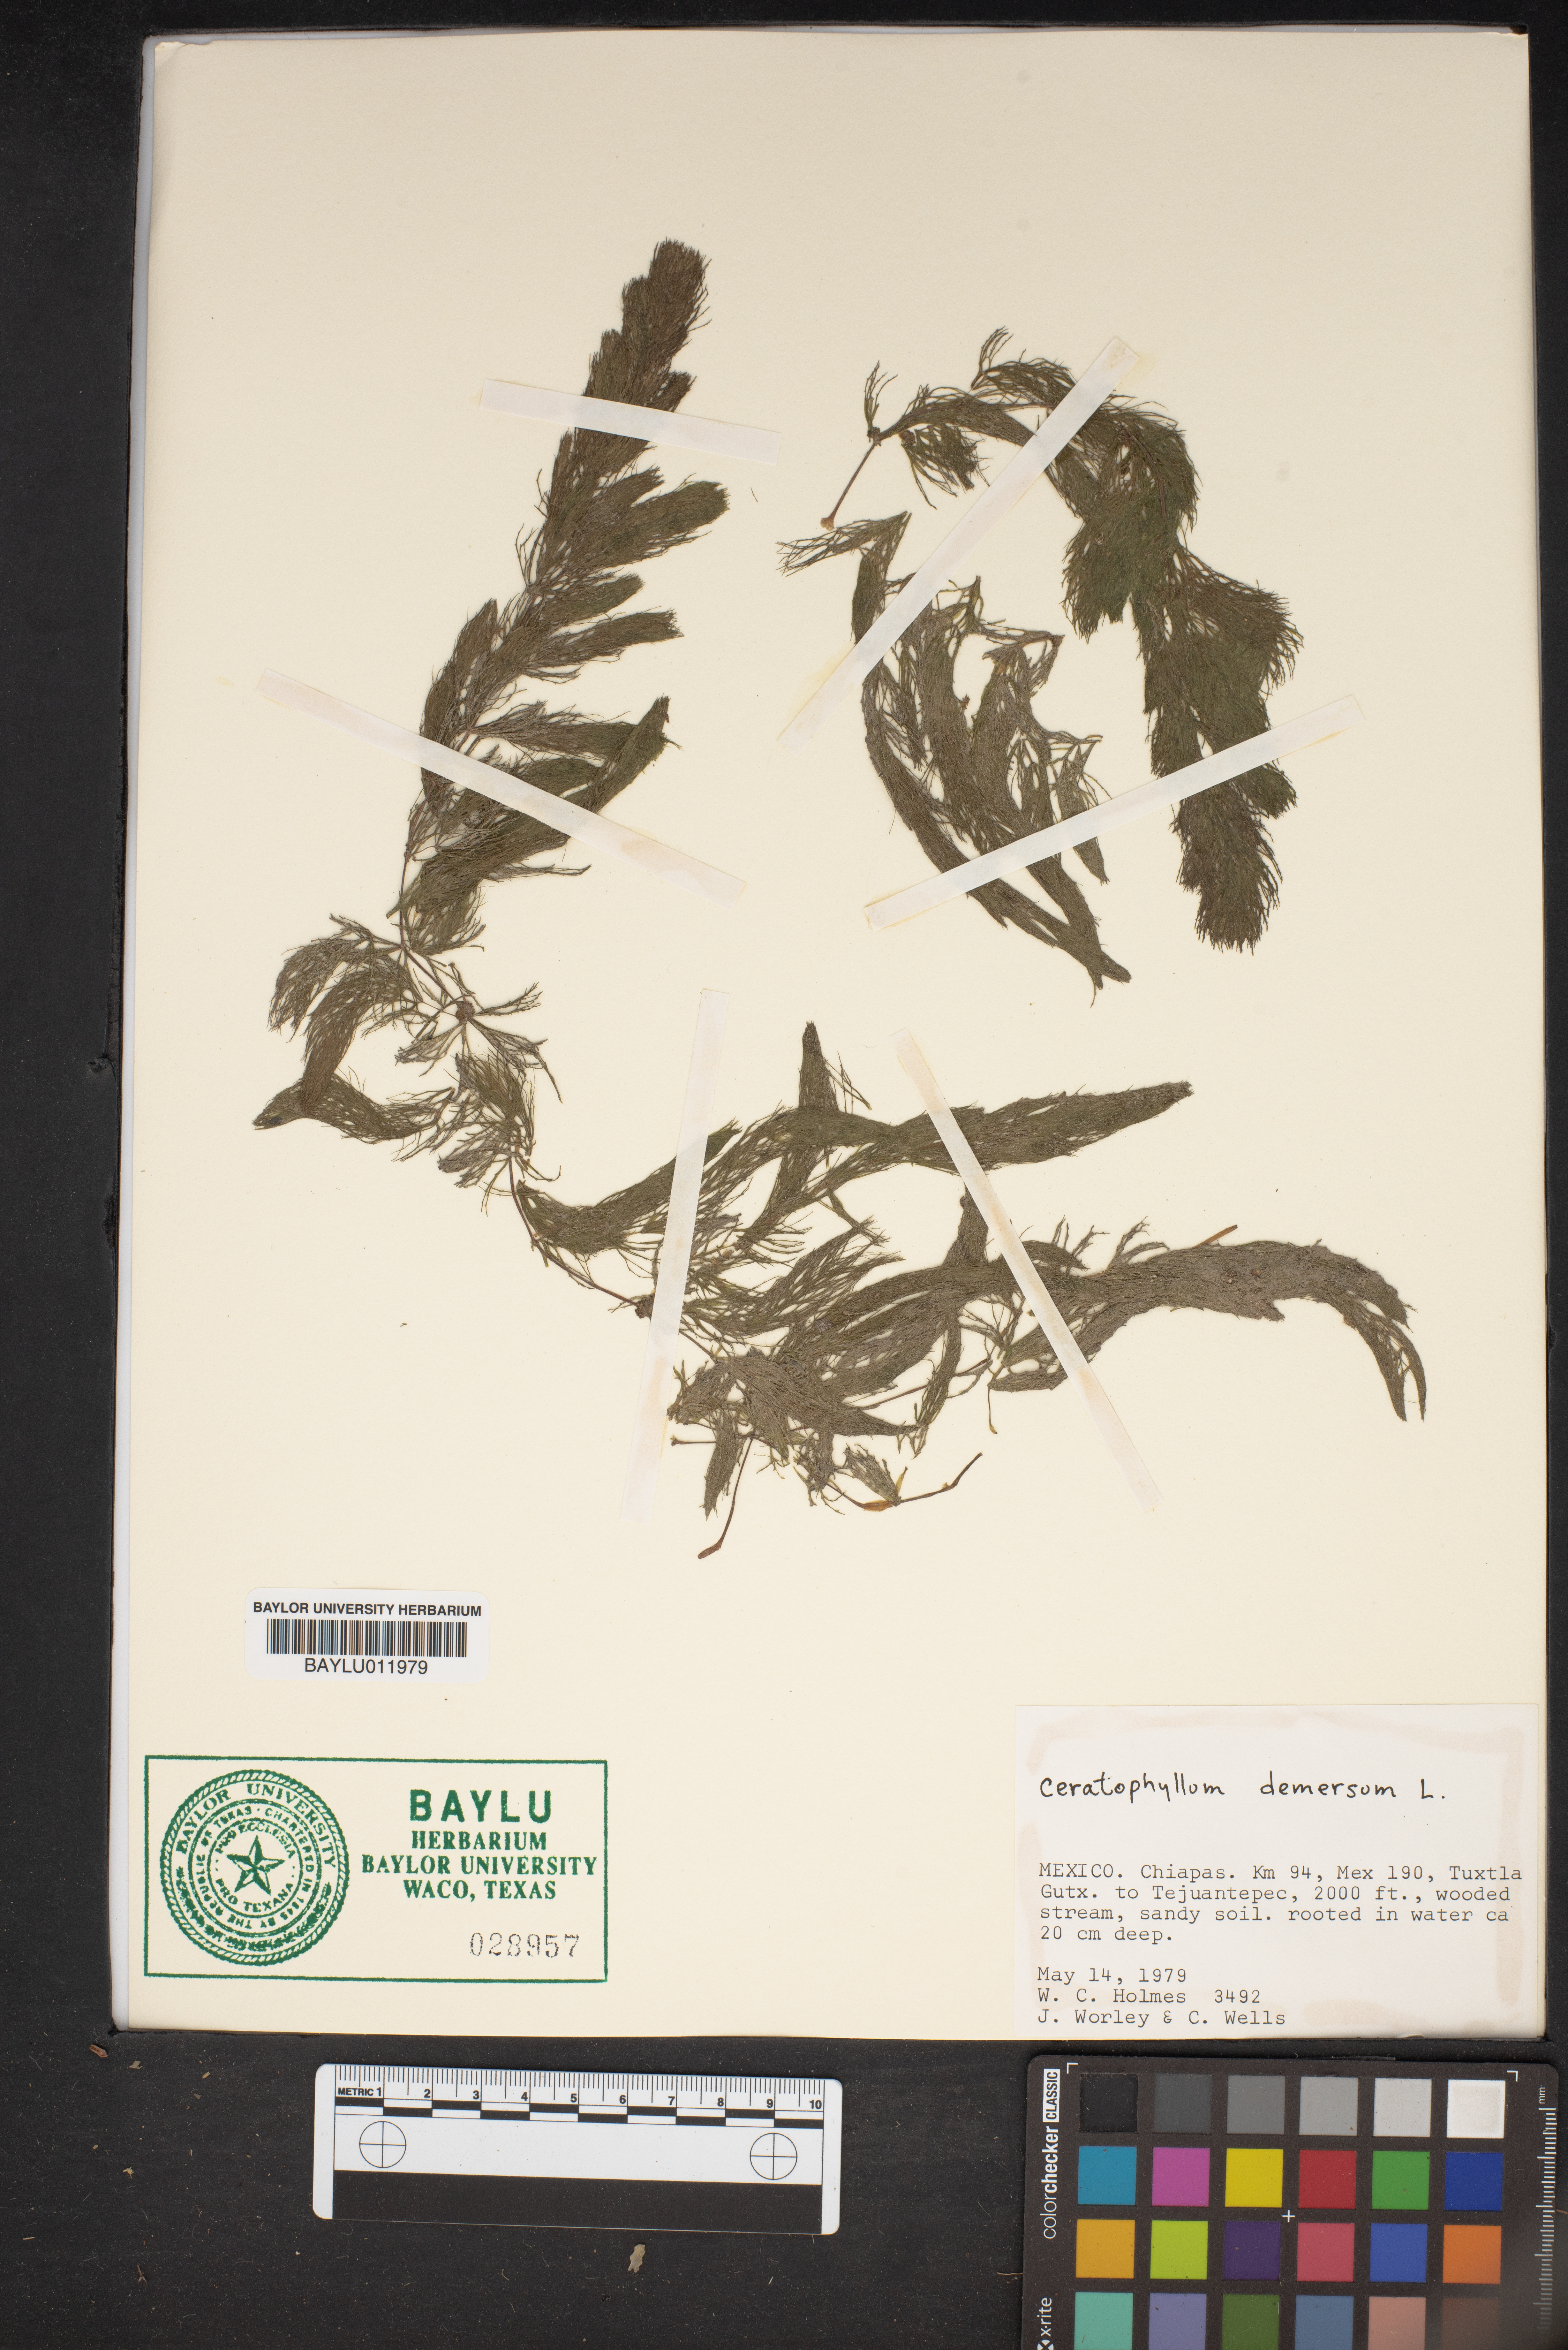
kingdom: Plantae
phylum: Tracheophyta
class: Magnoliopsida
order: Ceratophyllales
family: Ceratophyllaceae
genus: Ceratophyllum
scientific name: Ceratophyllum demersum
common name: Rigid hornwort
